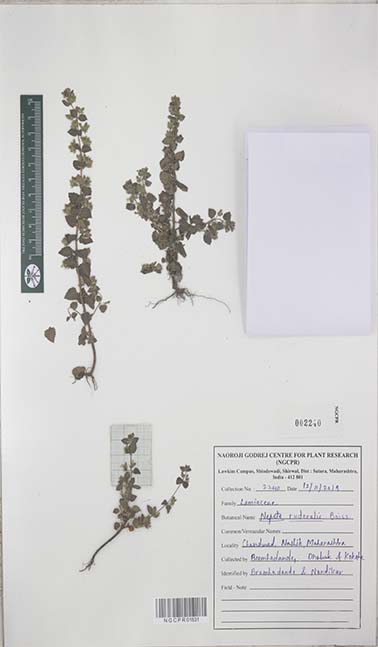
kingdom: Plantae
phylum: Tracheophyta
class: Magnoliopsida
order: Lamiales
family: Lamiaceae
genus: Nepeta
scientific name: Nepeta ruderalis
